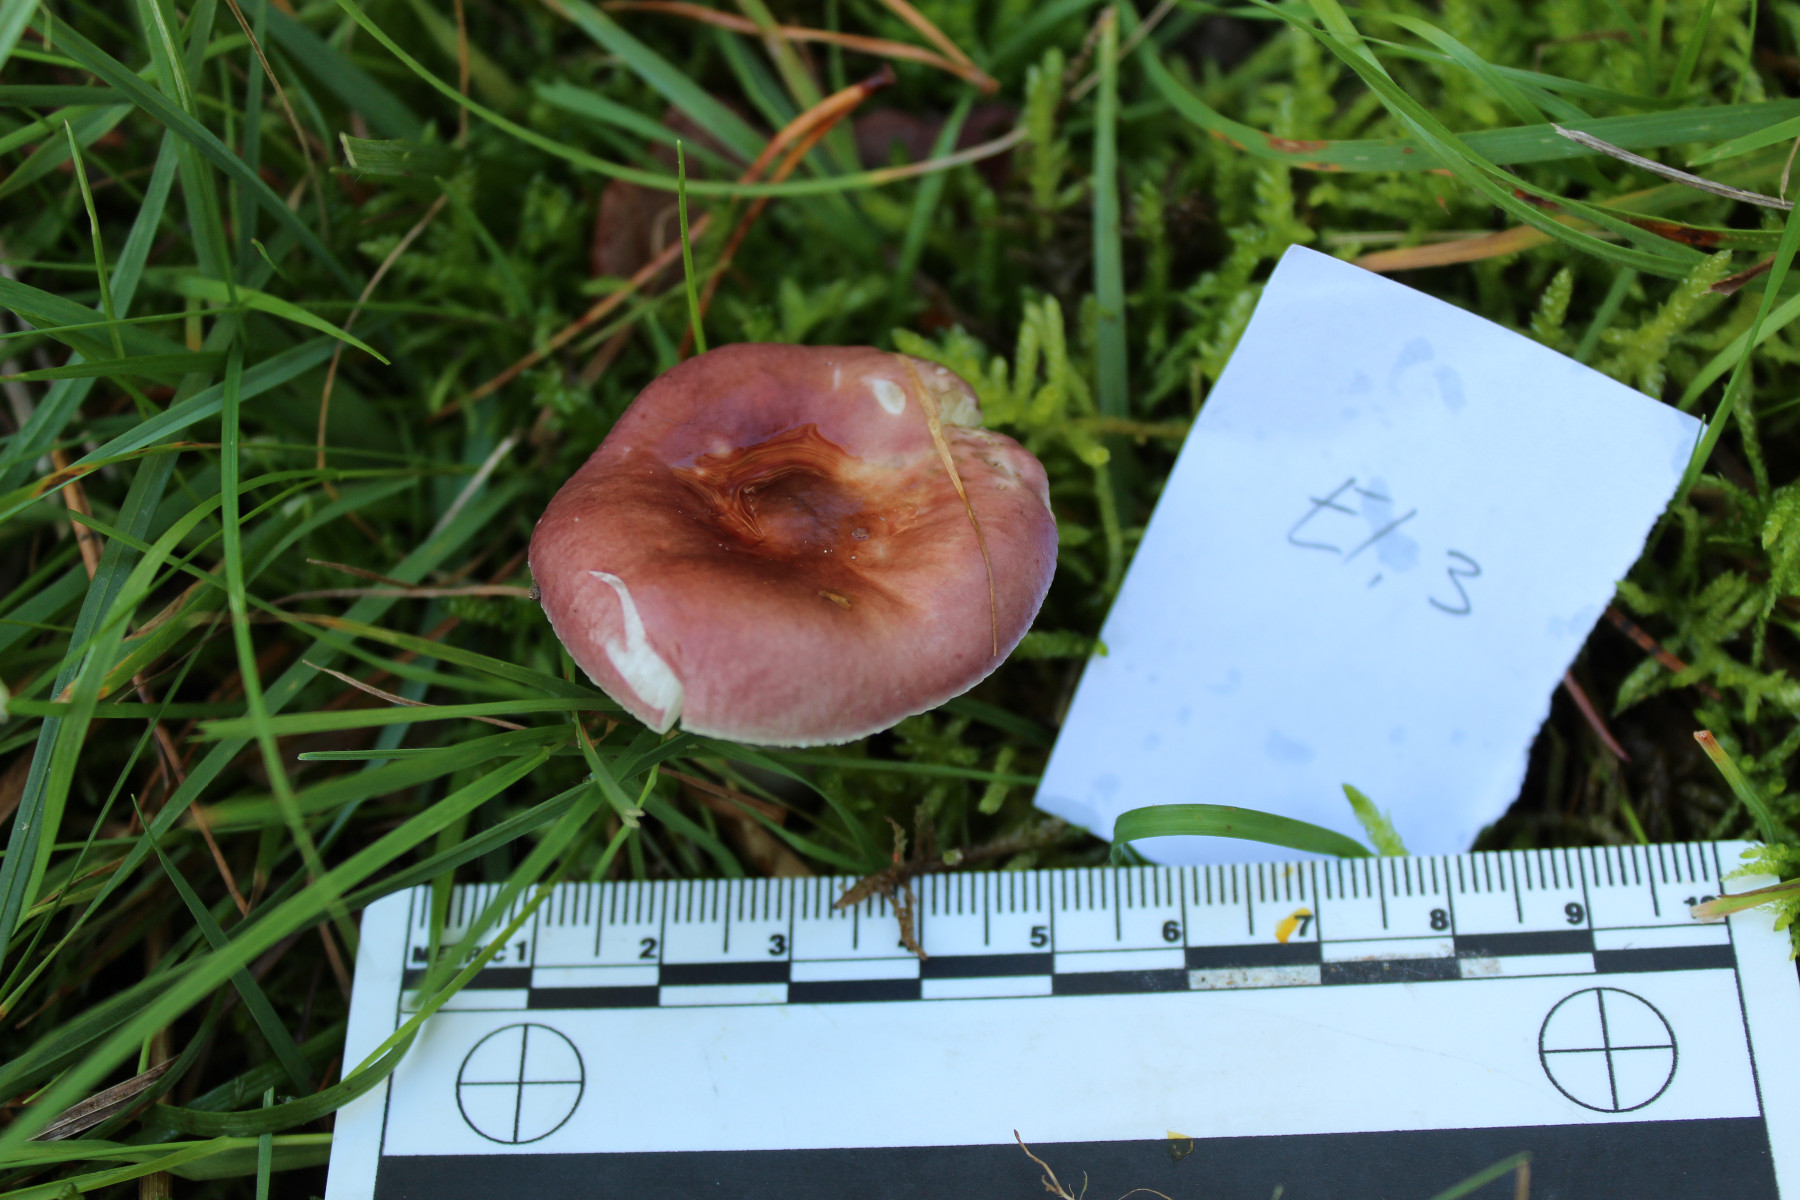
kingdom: Fungi
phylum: Basidiomycota
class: Agaricomycetes
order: Russulales
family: Russulaceae
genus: Russula
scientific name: Russula
